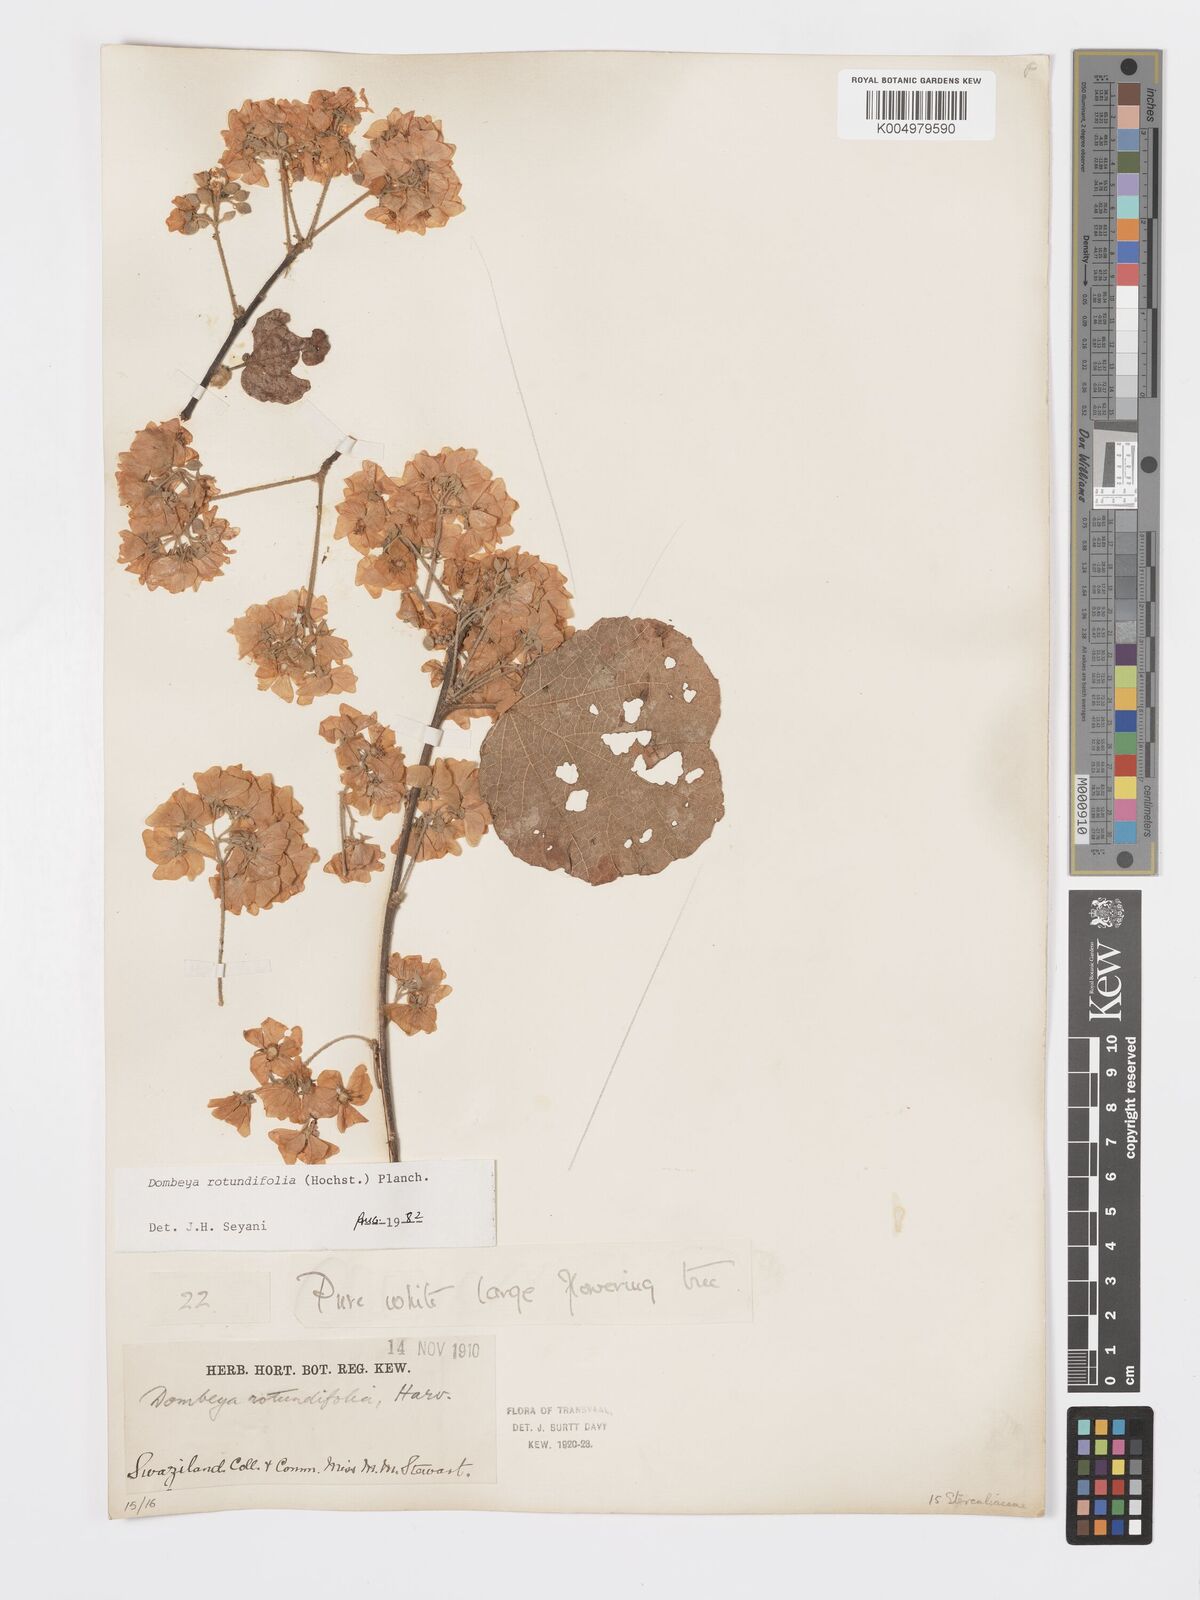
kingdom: Plantae
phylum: Tracheophyta
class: Magnoliopsida
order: Malvales
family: Malvaceae
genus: Dombeya
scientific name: Dombeya rotundifolia
